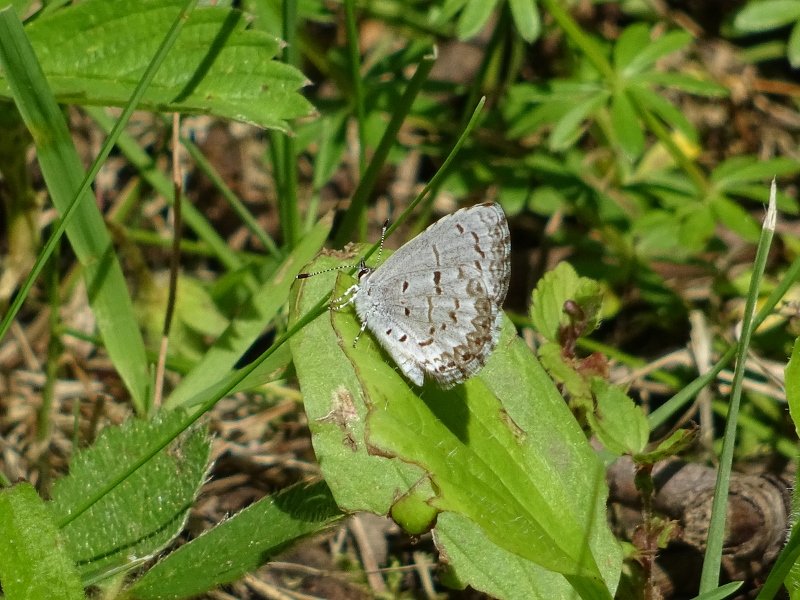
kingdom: Animalia
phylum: Arthropoda
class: Insecta
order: Lepidoptera
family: Lycaenidae
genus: Celastrina
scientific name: Celastrina lucia
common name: Northern Spring Azure
